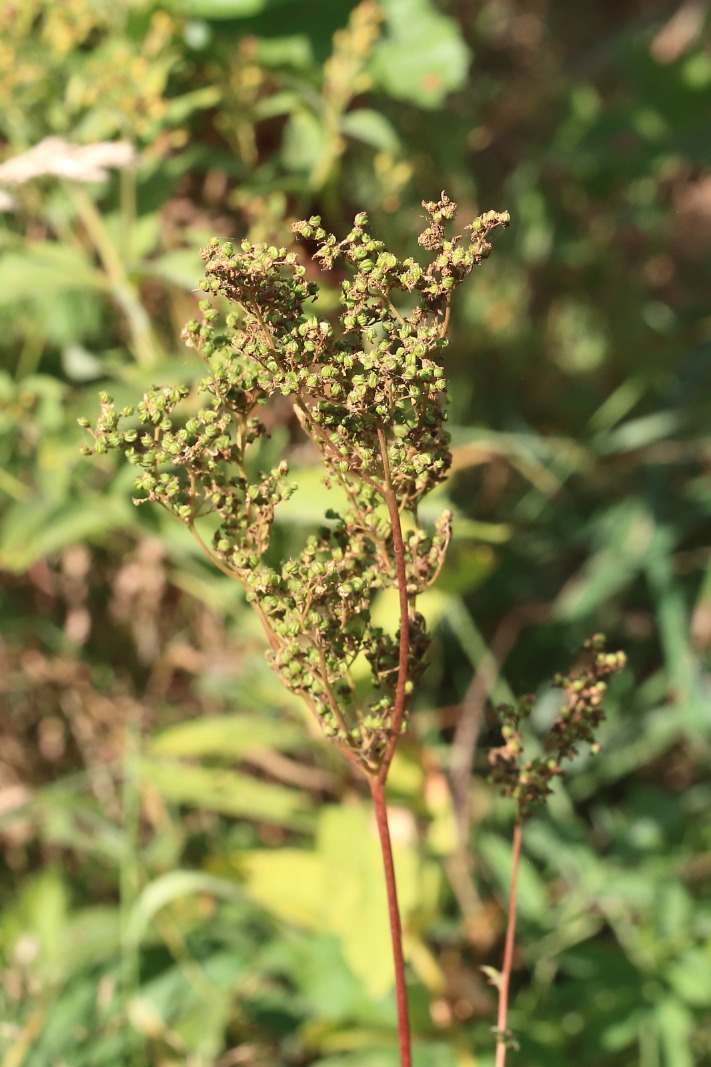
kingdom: Plantae
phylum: Tracheophyta
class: Magnoliopsida
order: Rosales
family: Rosaceae
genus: Filipendula
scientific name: Filipendula ulmaria
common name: Almindelig mjødurt
